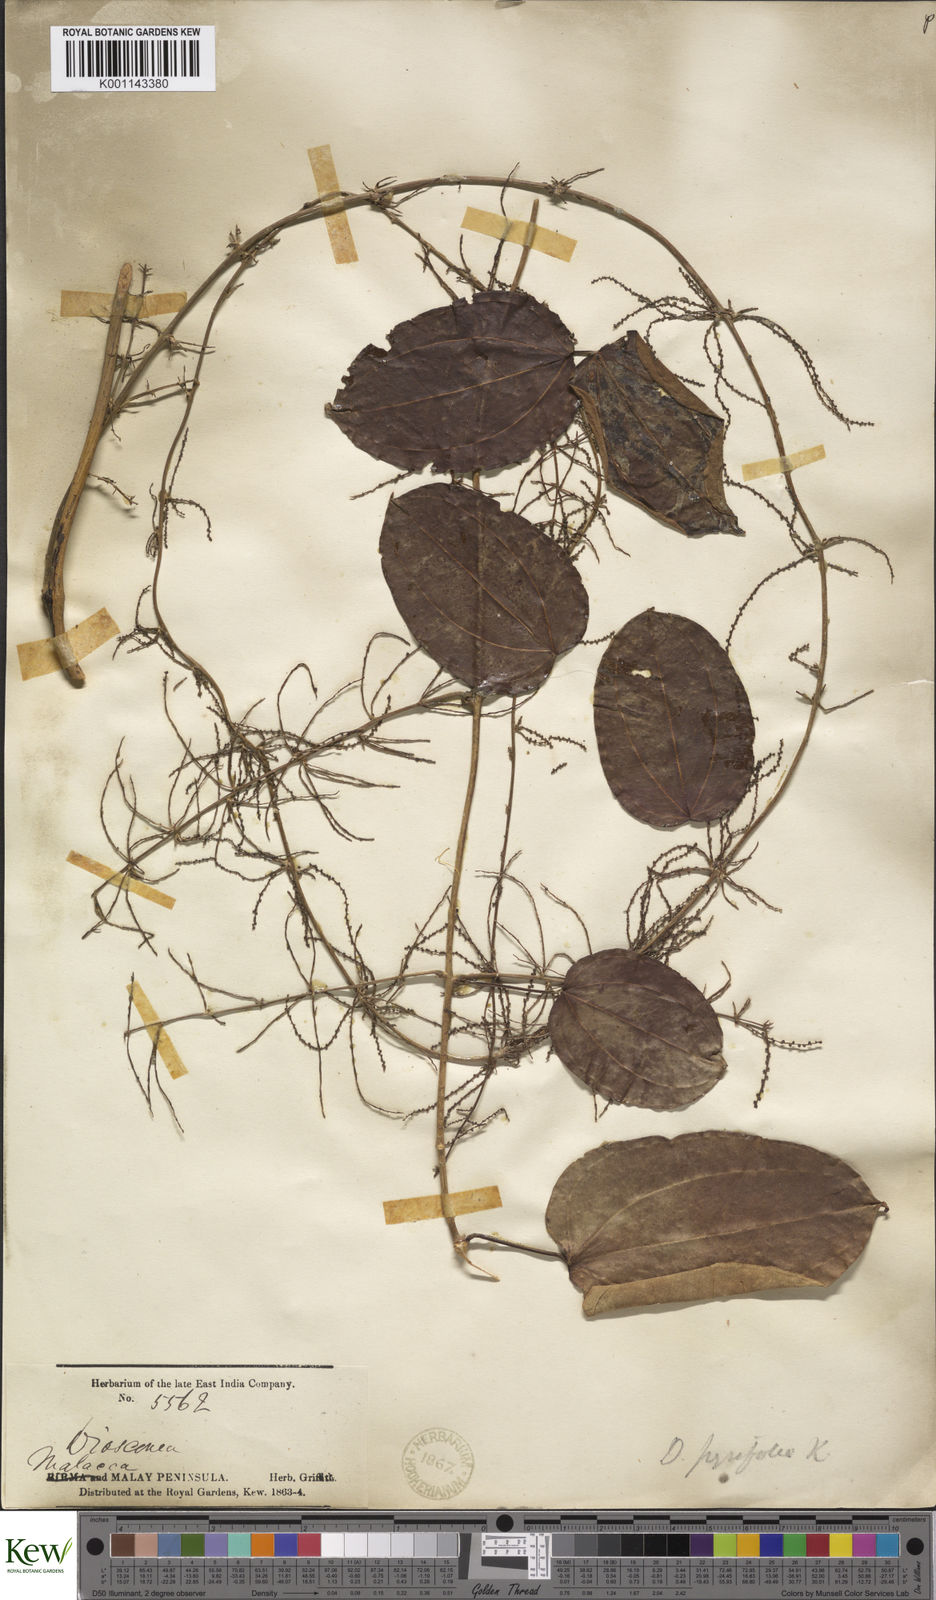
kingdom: Plantae
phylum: Tracheophyta
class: Liliopsida
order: Dioscoreales
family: Dioscoreaceae
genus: Dioscorea
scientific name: Dioscorea pyrifolia
